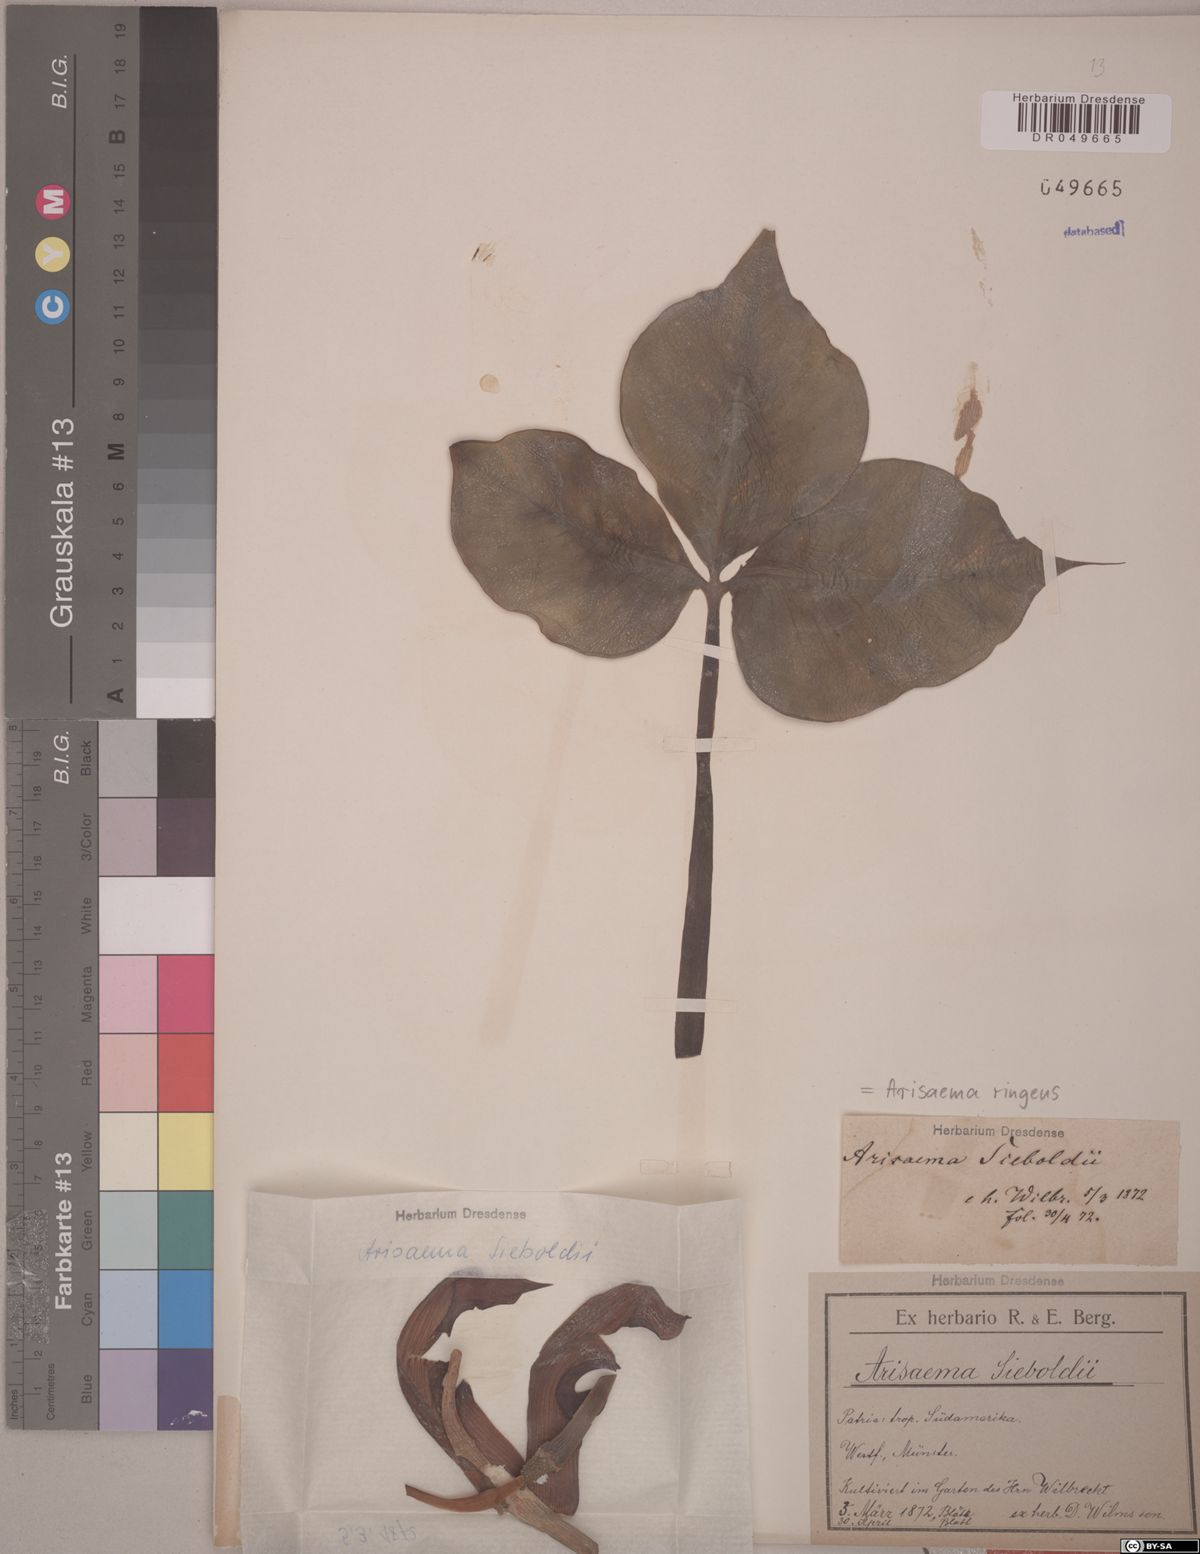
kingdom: Plantae
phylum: Tracheophyta
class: Liliopsida
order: Alismatales
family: Araceae
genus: Arisaema
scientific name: Arisaema ringens
